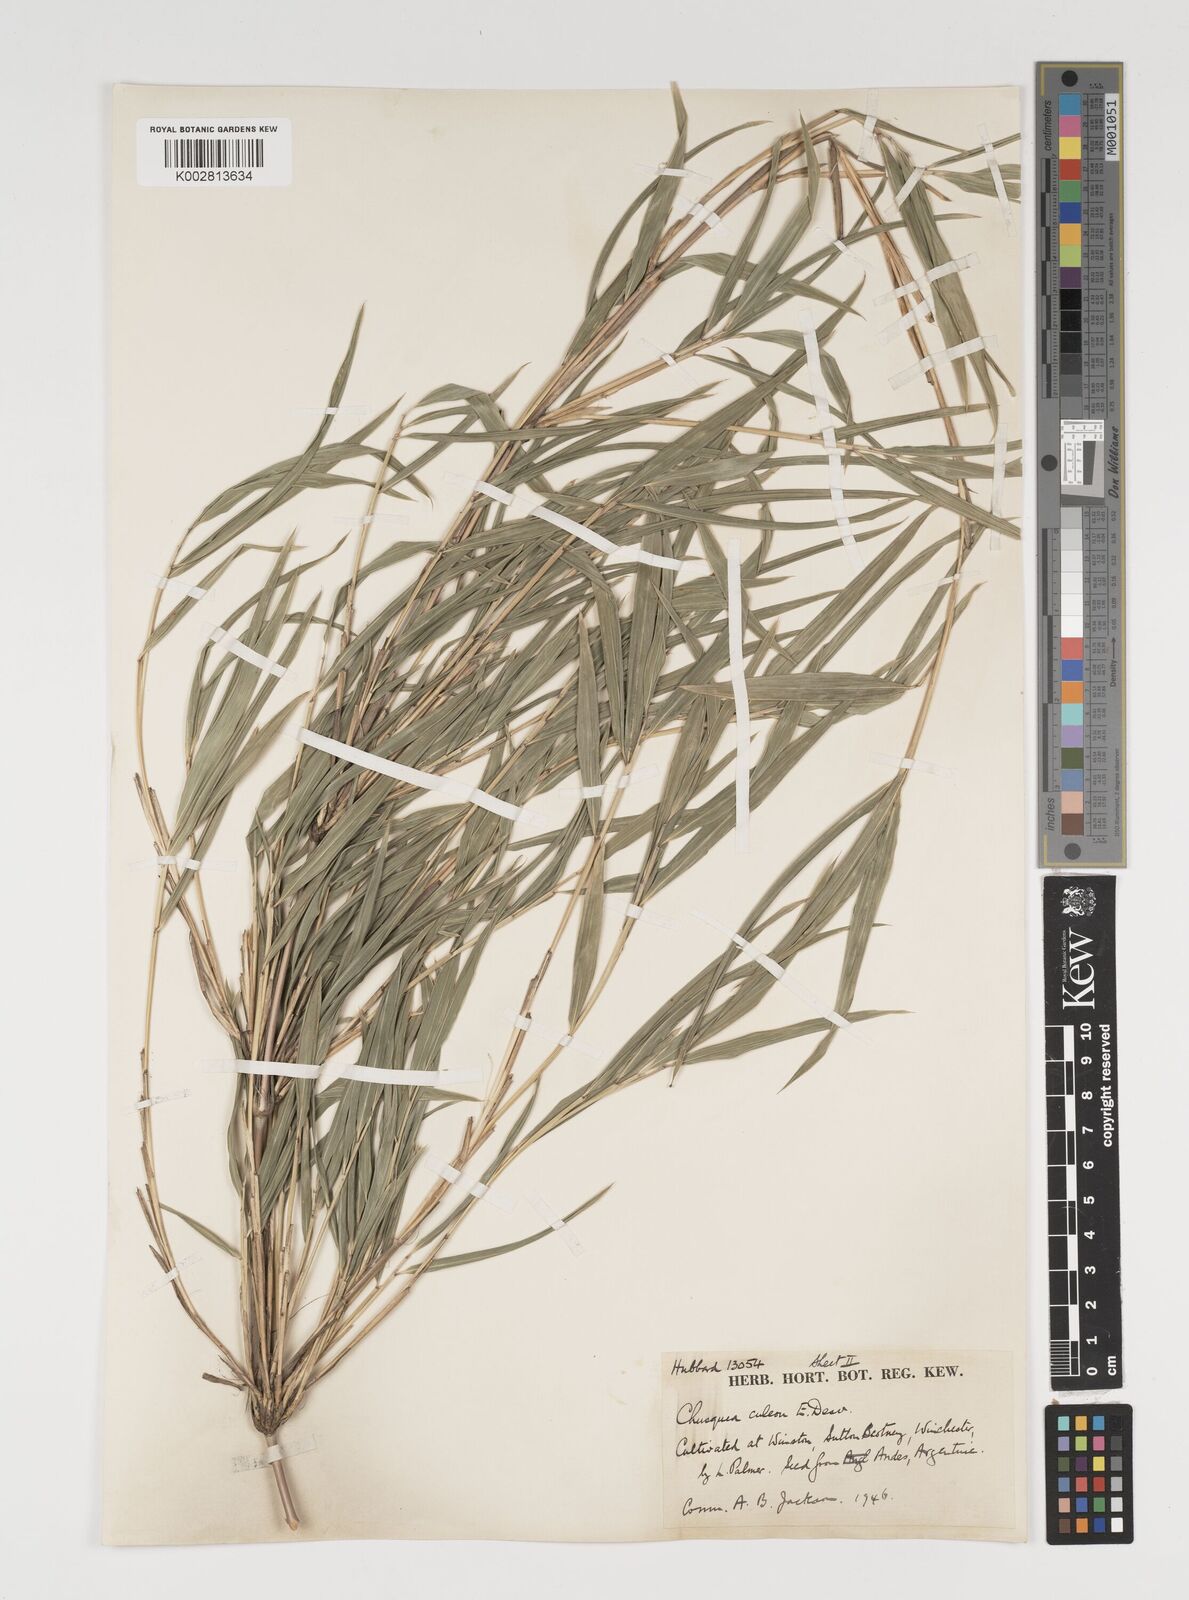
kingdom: Plantae
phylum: Tracheophyta
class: Liliopsida
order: Poales
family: Poaceae
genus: Chusquea
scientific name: Chusquea culeou
